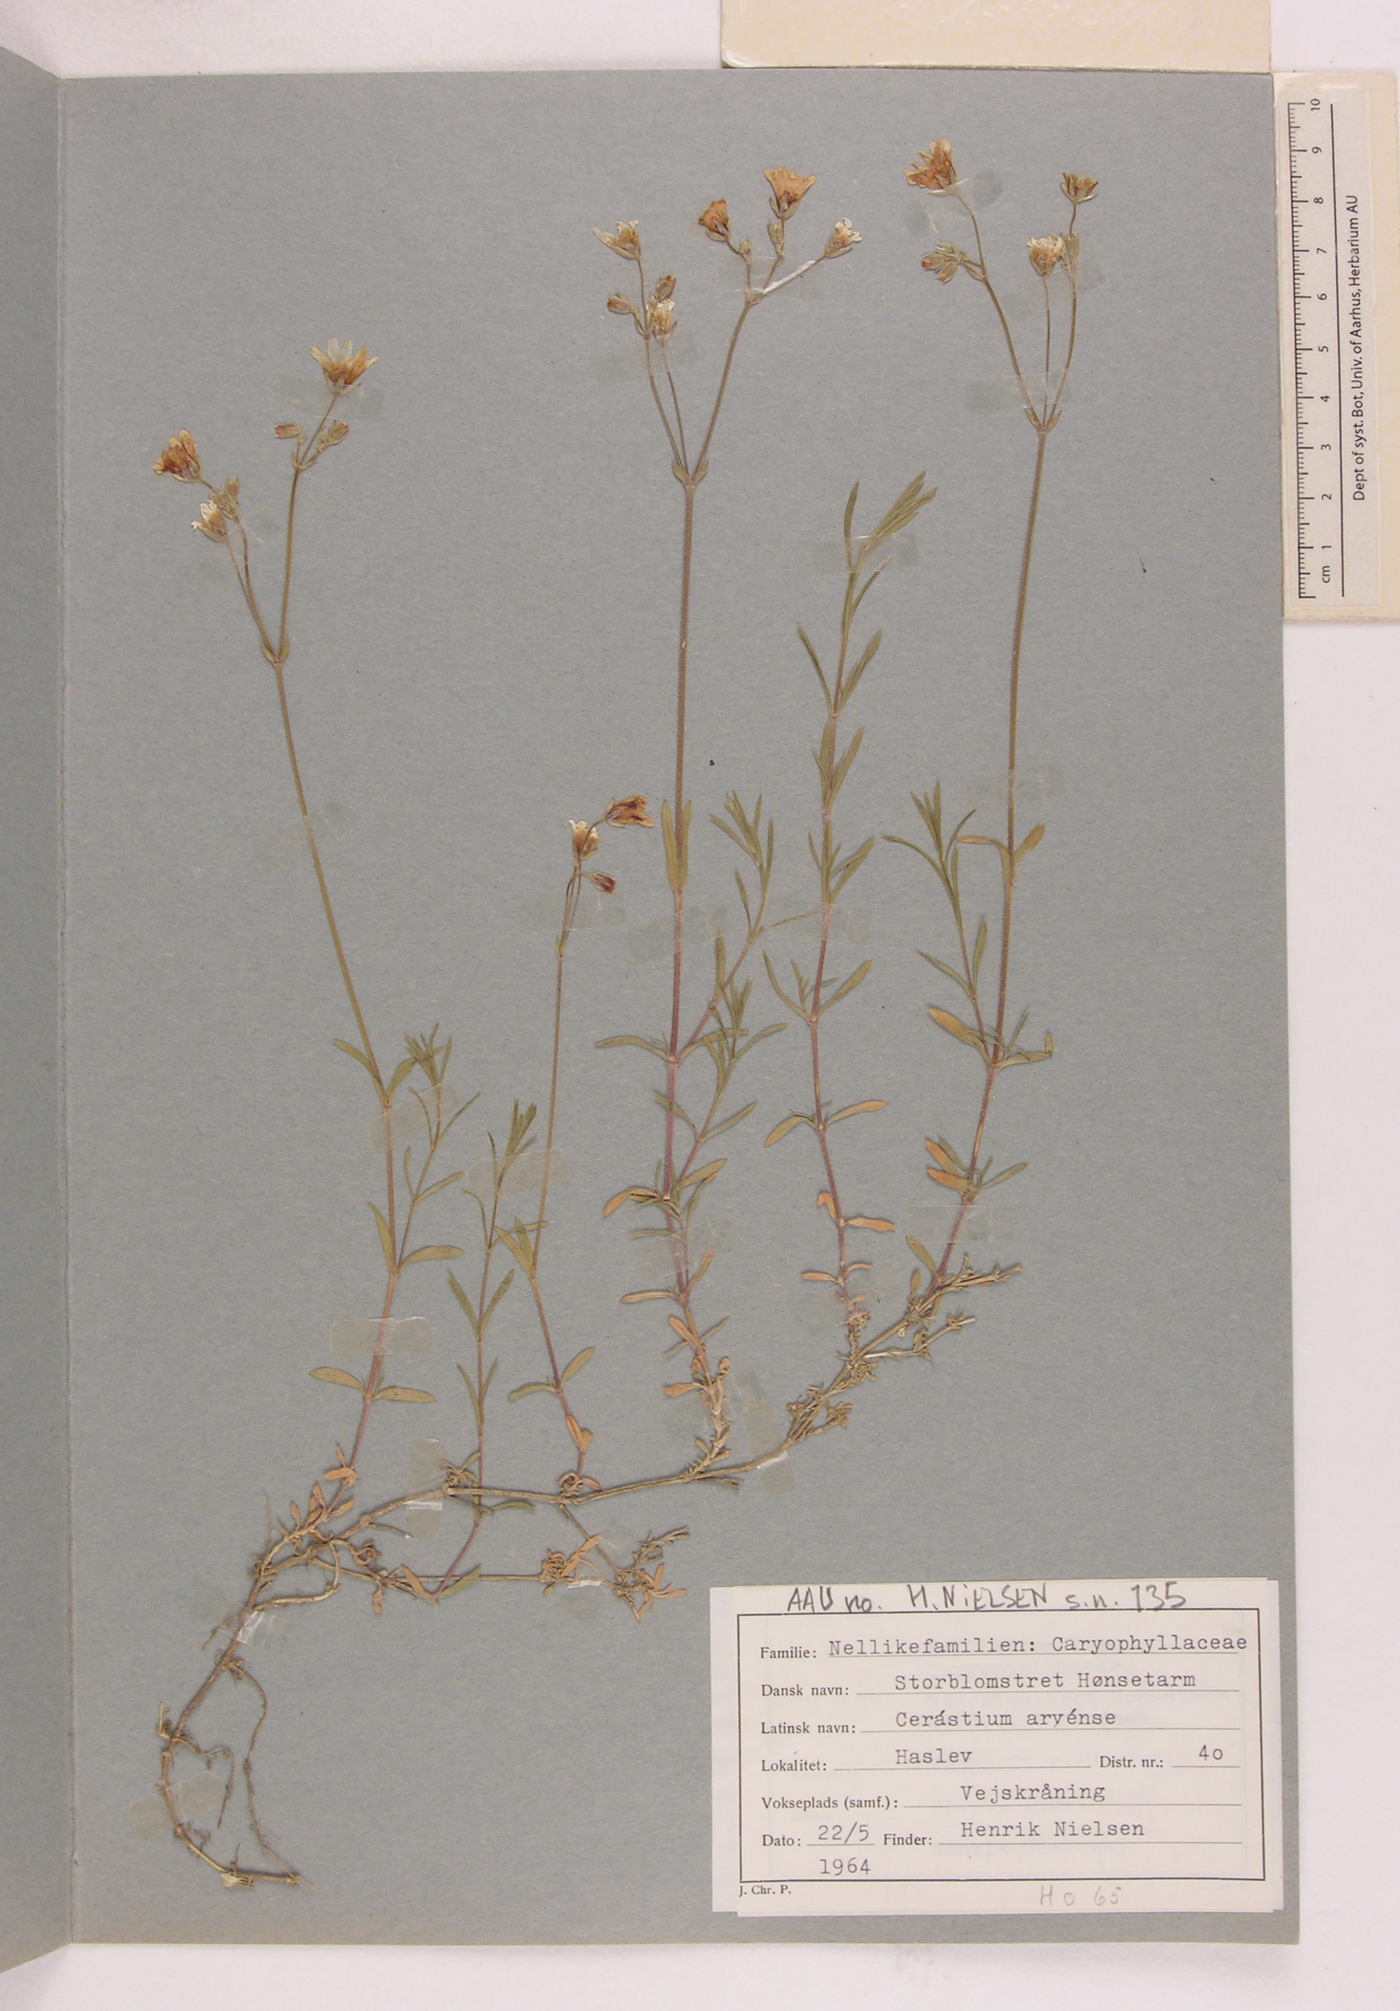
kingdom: Plantae
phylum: Tracheophyta
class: Magnoliopsida
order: Caryophyllales
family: Caryophyllaceae
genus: Cerastium
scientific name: Cerastium arvense
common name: Field mouse-ear
